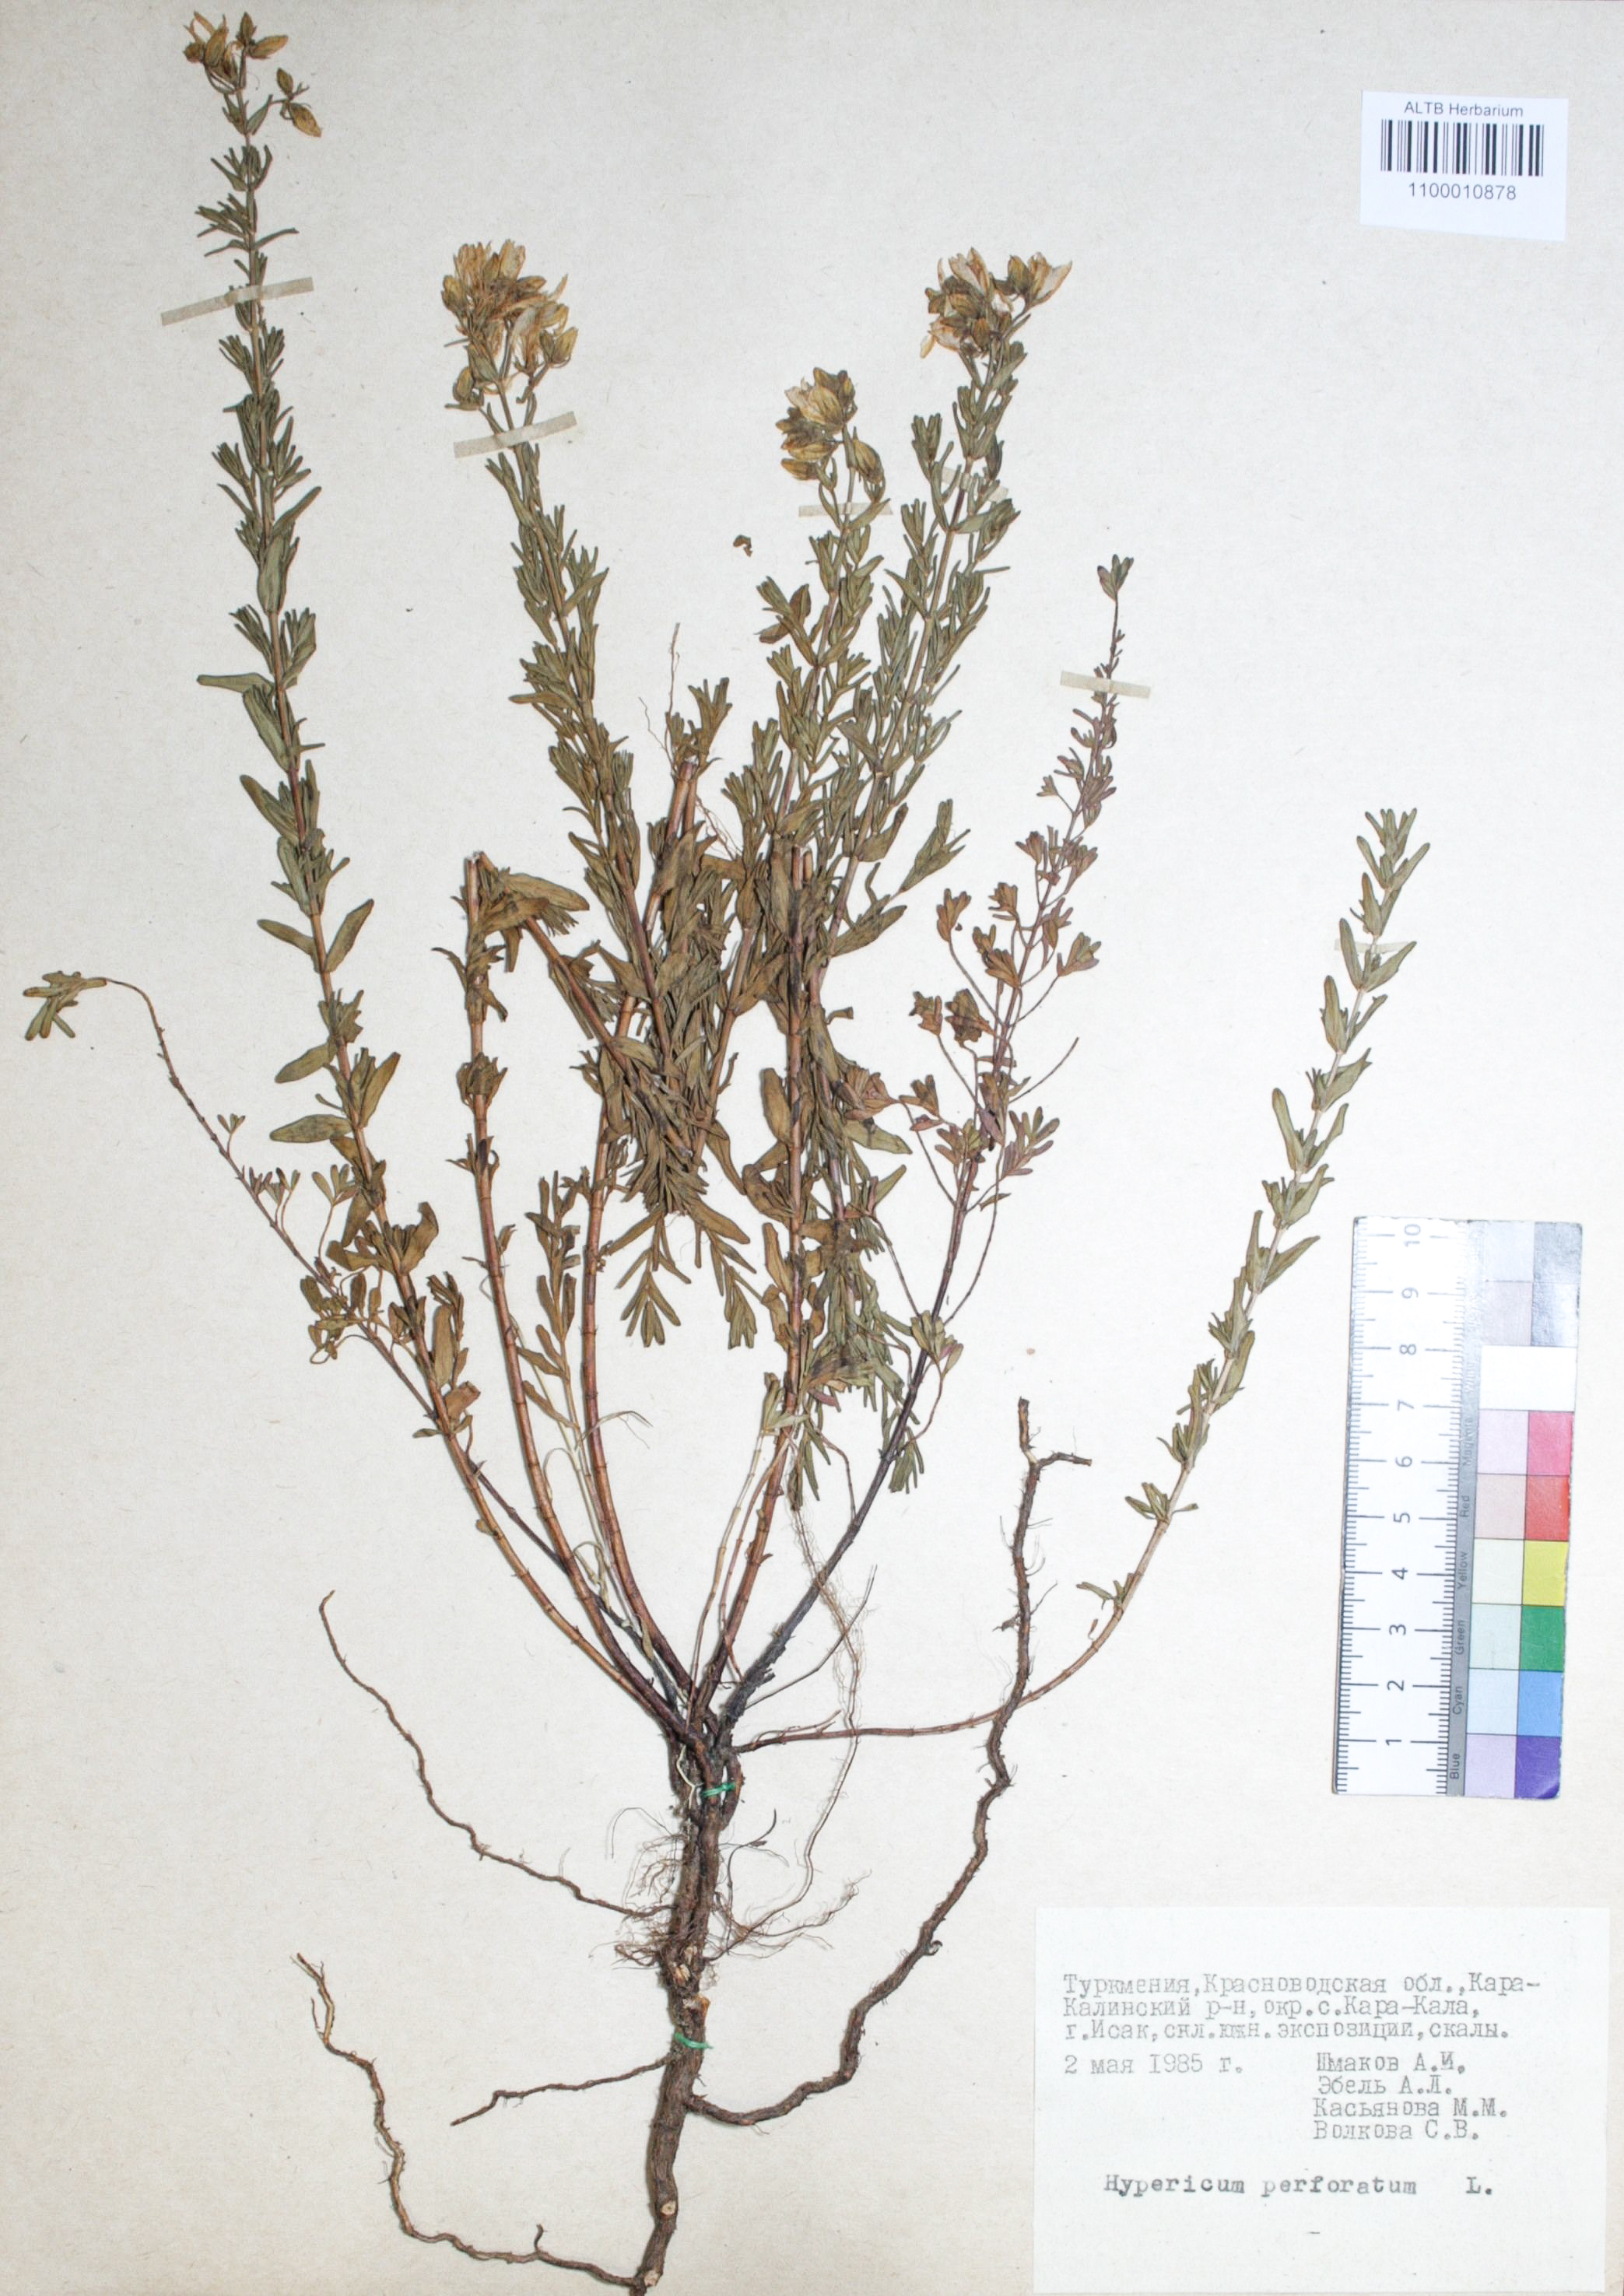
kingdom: Plantae
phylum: Tracheophyta
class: Magnoliopsida
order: Malpighiales
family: Hypericaceae
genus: Hypericum
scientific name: Hypericum perforatum
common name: Common st. johnswort
